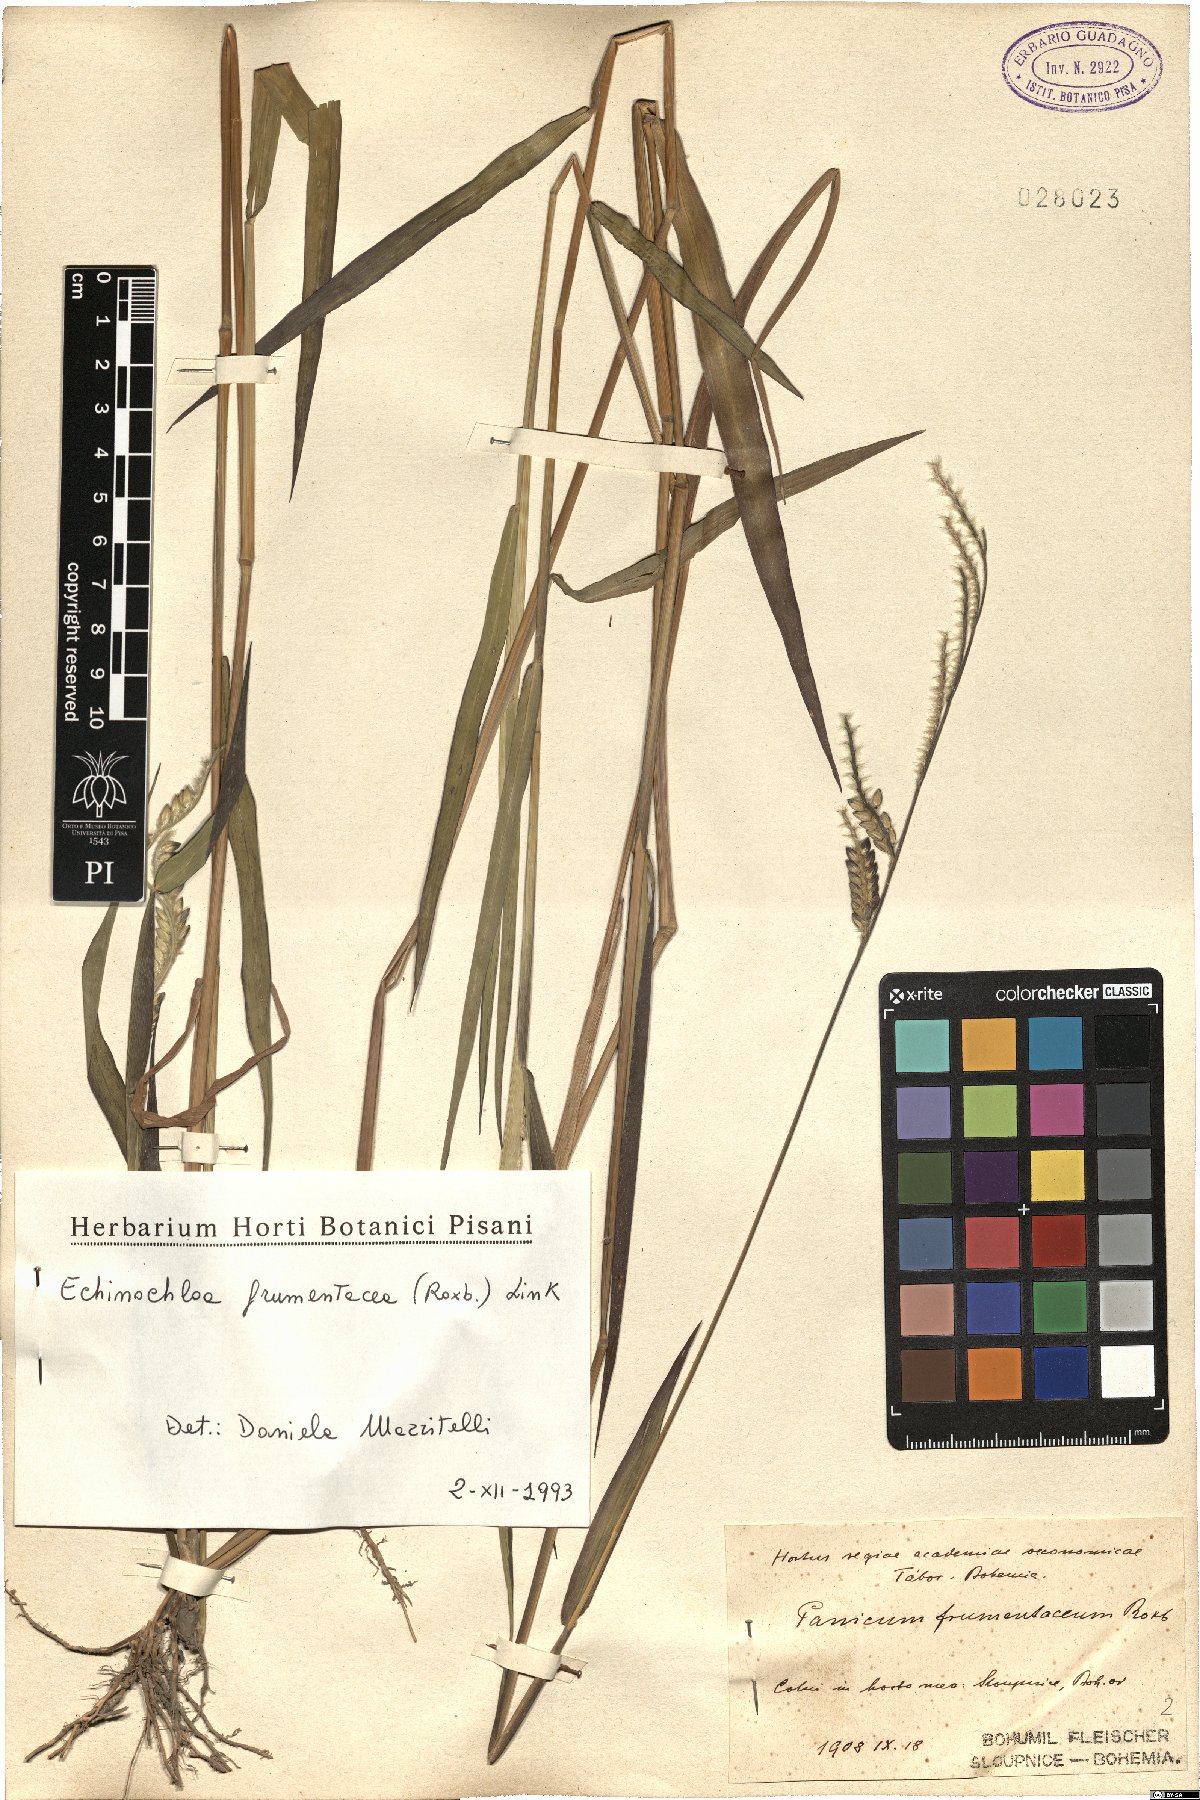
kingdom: Plantae
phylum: Tracheophyta
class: Liliopsida
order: Poales
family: Poaceae
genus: Echinochloa
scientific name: Echinochloa frumentacea
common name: Billion-dollar grass
